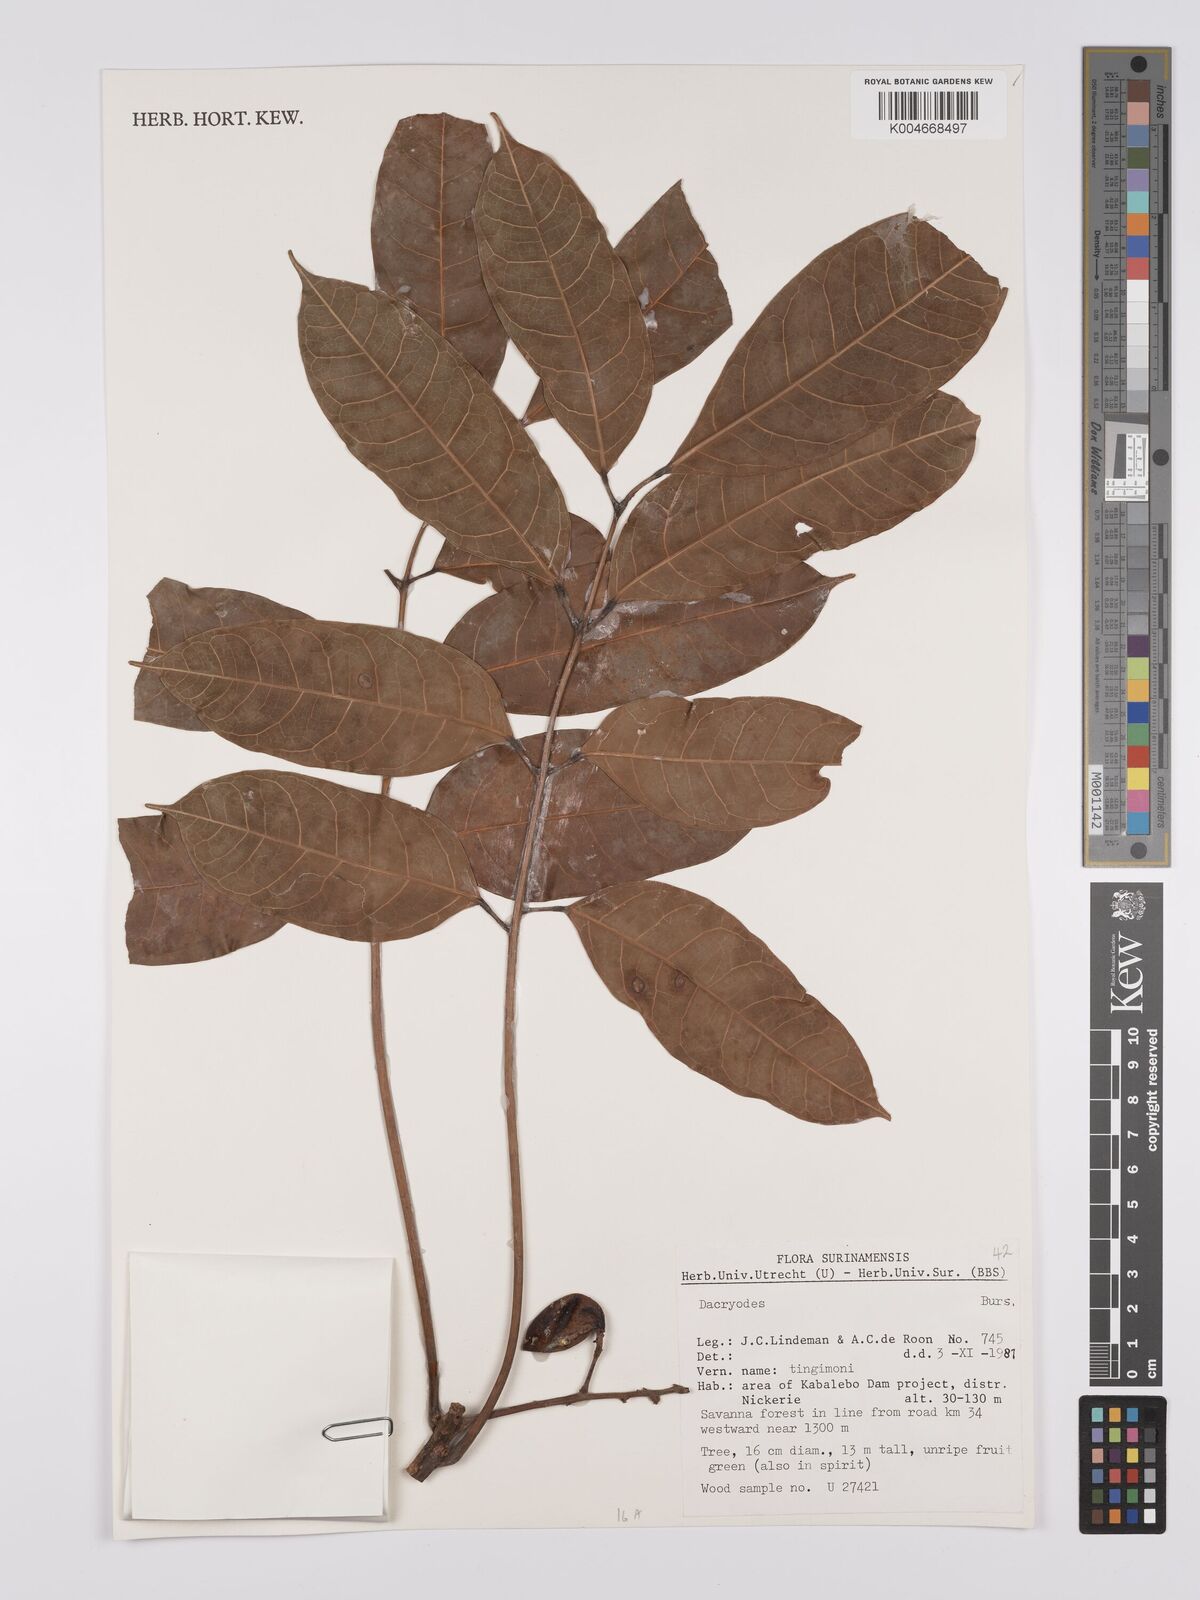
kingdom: Plantae
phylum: Tracheophyta
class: Magnoliopsida
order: Sapindales
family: Burseraceae
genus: Dacryodes
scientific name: Dacryodes
